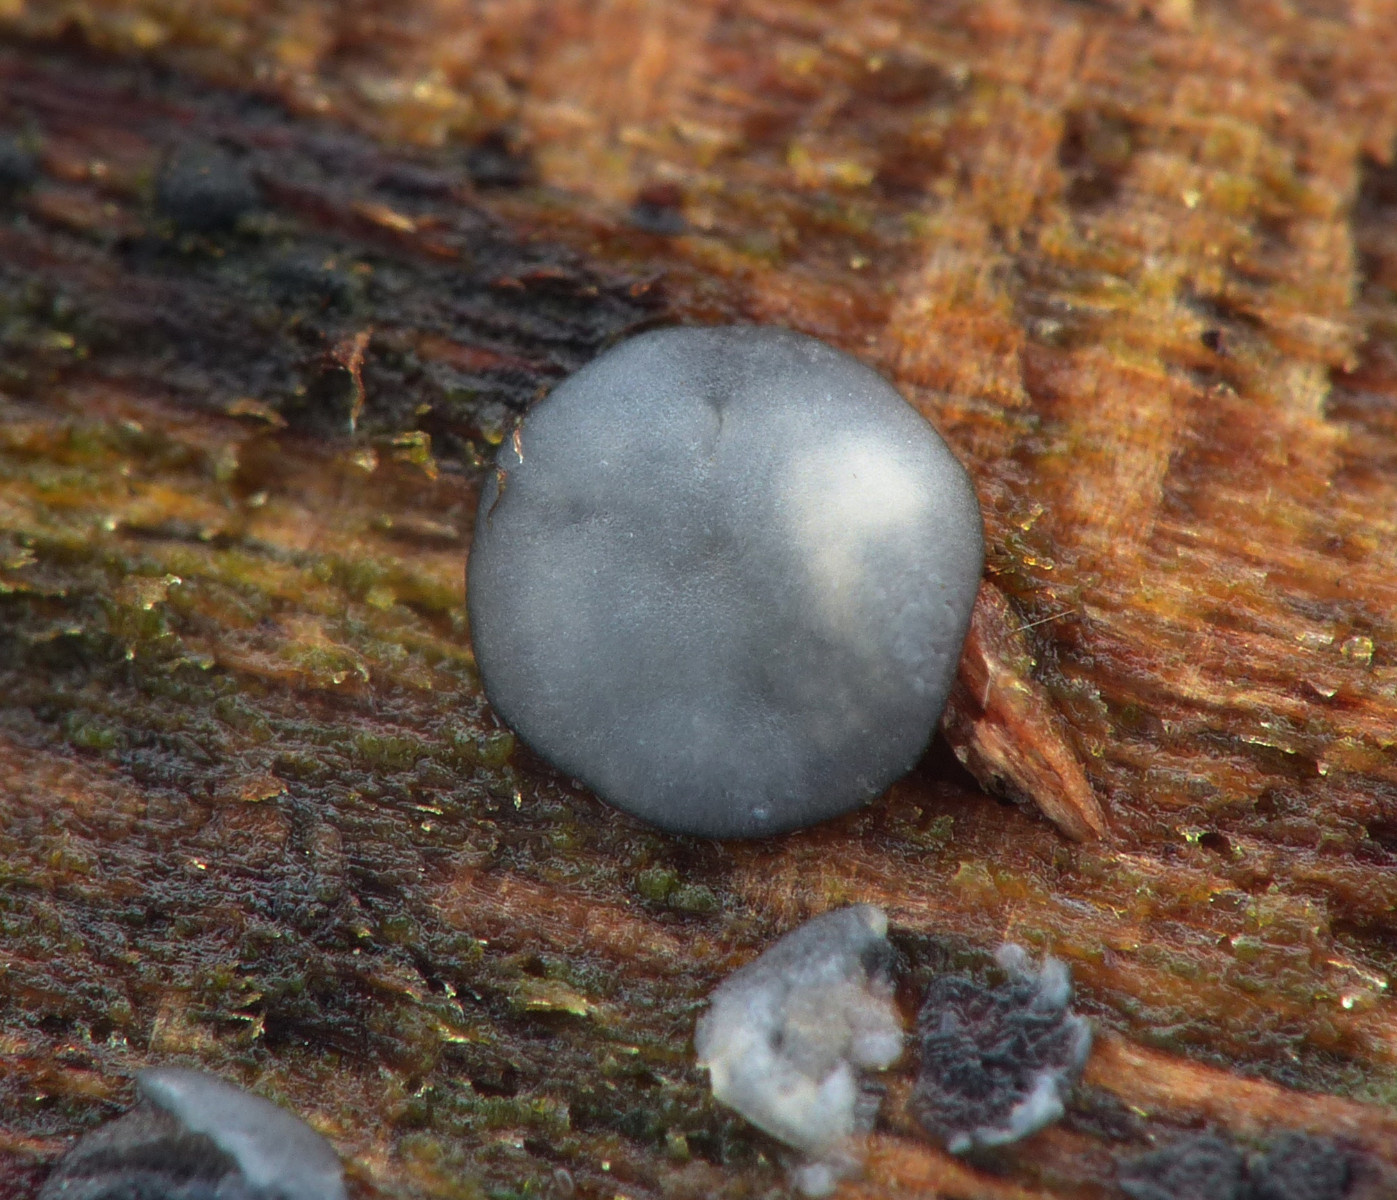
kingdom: Fungi
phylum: Ascomycota
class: Leotiomycetes
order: Helotiales
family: Mollisiaceae
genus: Mollisia
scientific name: Mollisia
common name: gråskive
